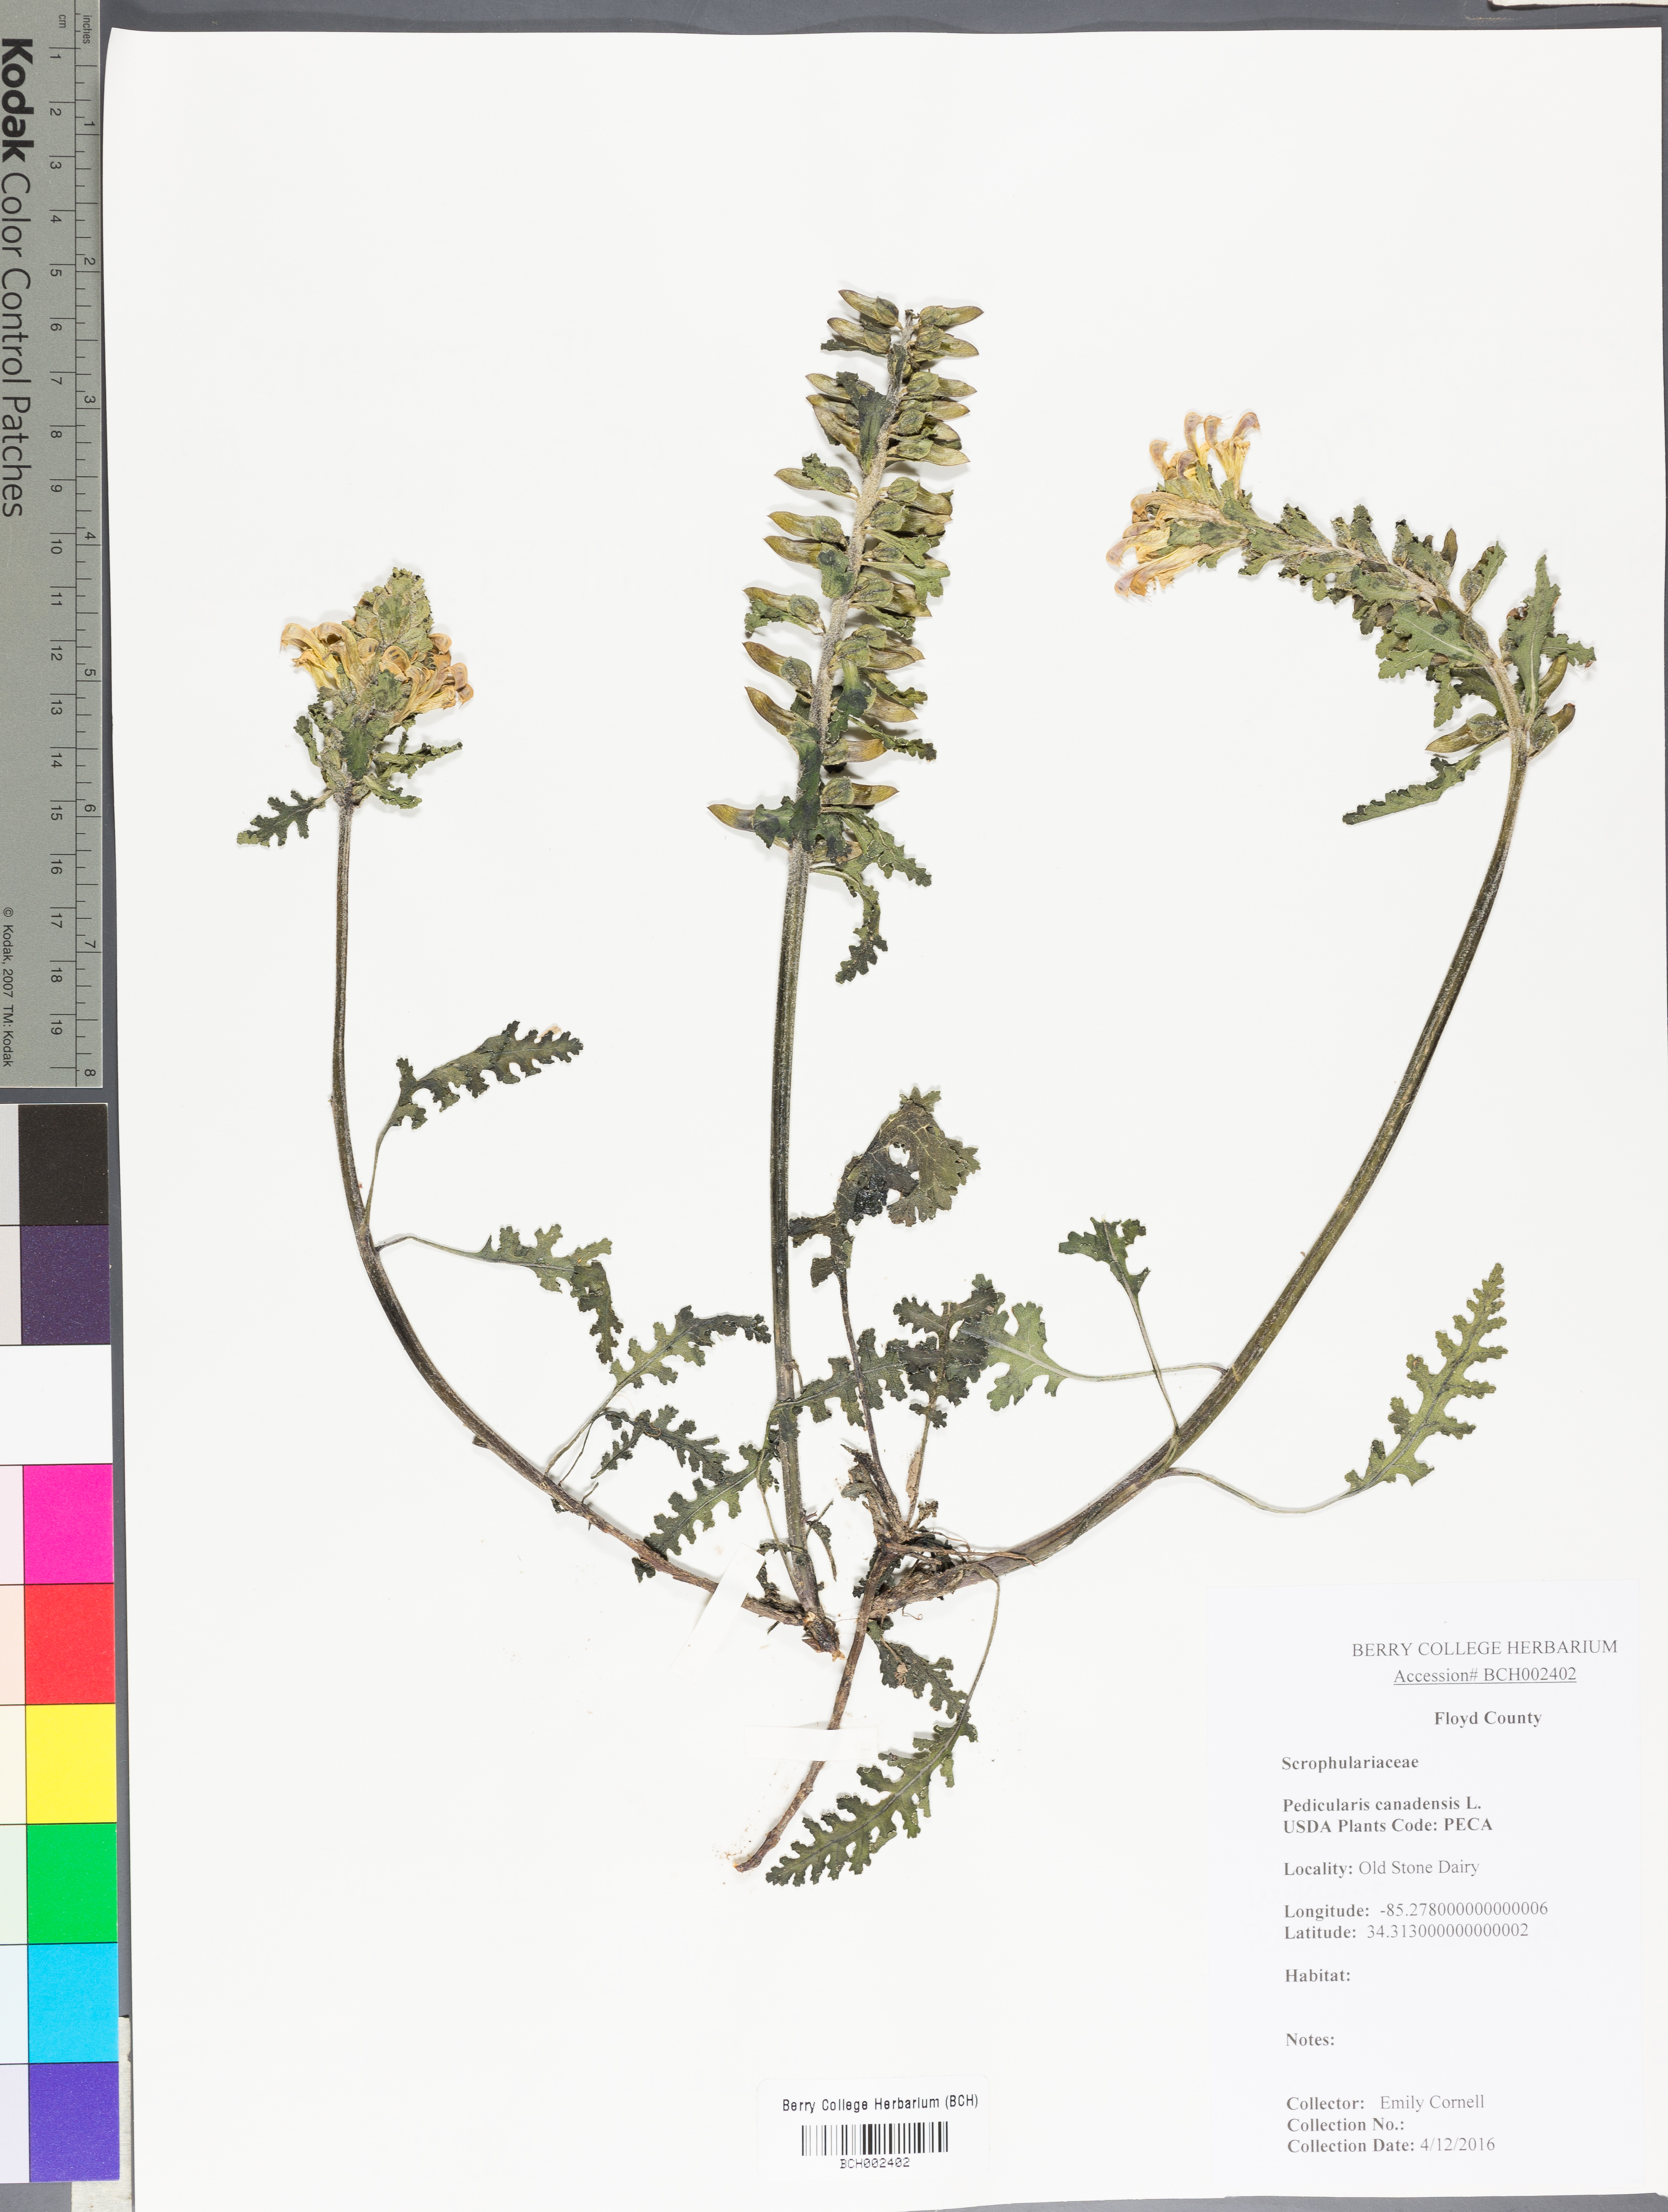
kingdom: Plantae
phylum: Tracheophyta
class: Magnoliopsida
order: Lamiales
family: Orobanchaceae
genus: Pedicularis
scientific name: Pedicularis canadensis
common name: Early lousewort
